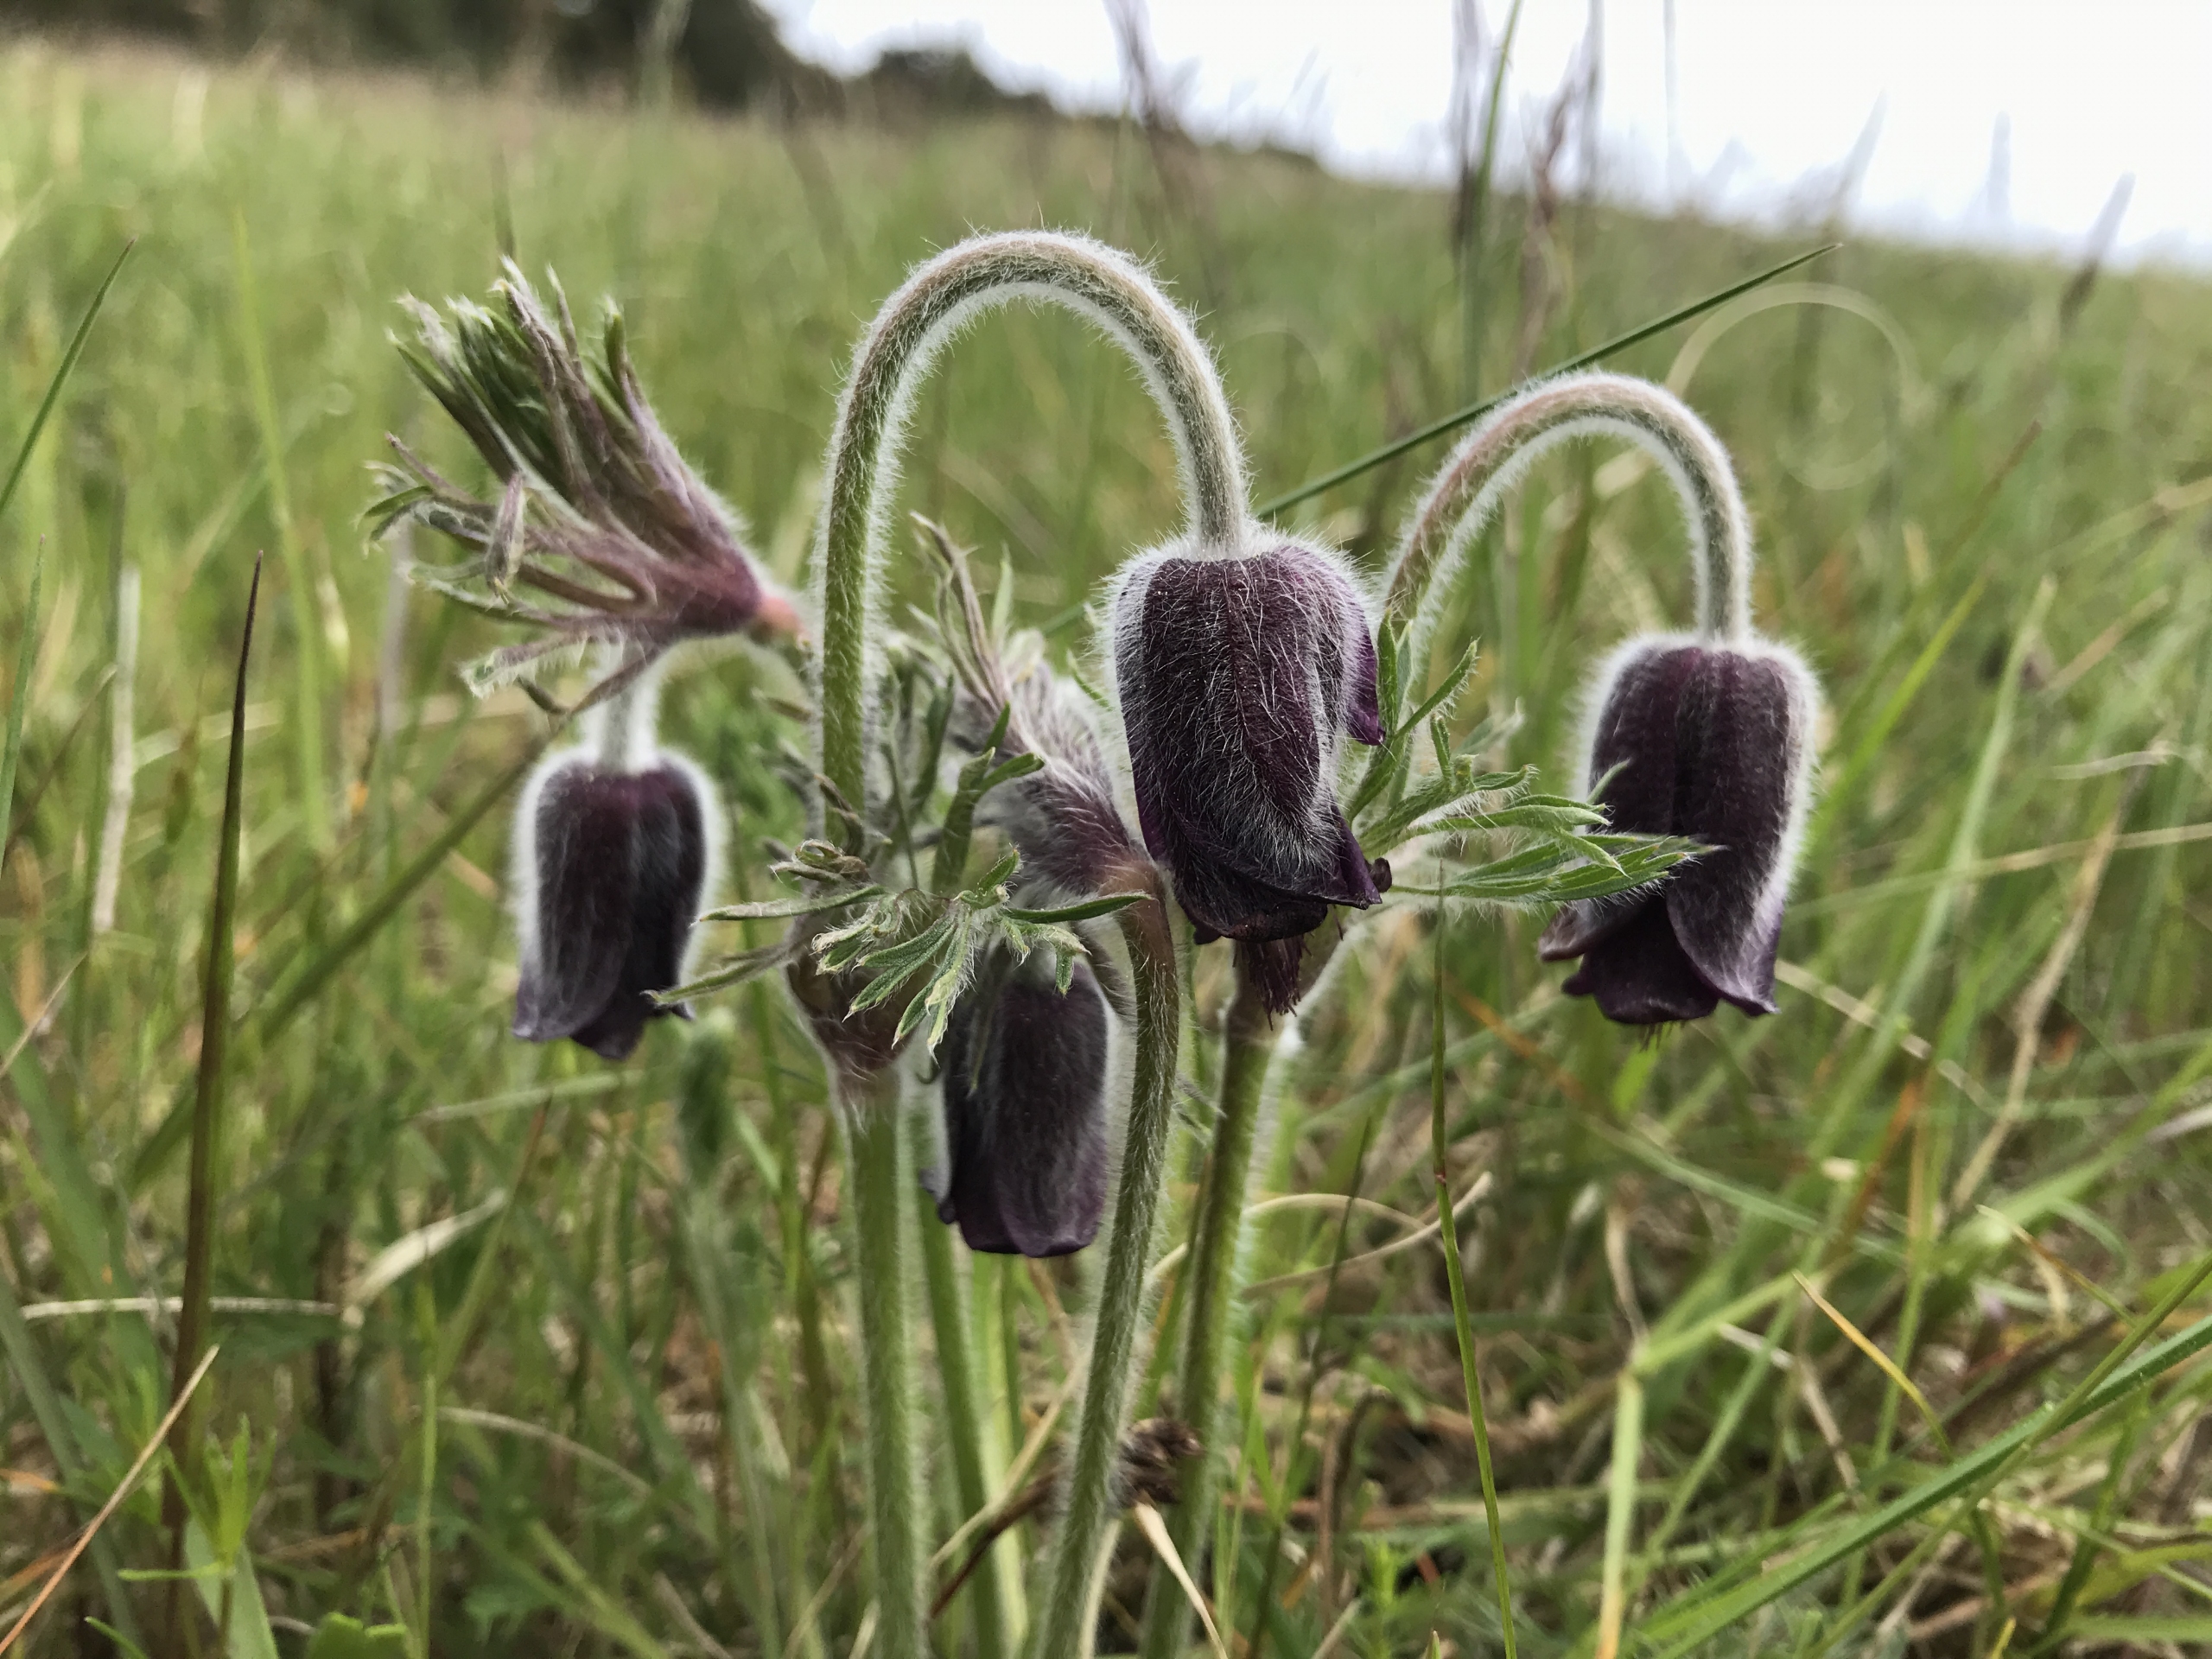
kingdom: Plantae
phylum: Tracheophyta
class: Magnoliopsida
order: Ranunculales
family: Ranunculaceae
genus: Pulsatilla
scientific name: Pulsatilla pratensis
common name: Nikkende kobjælde
